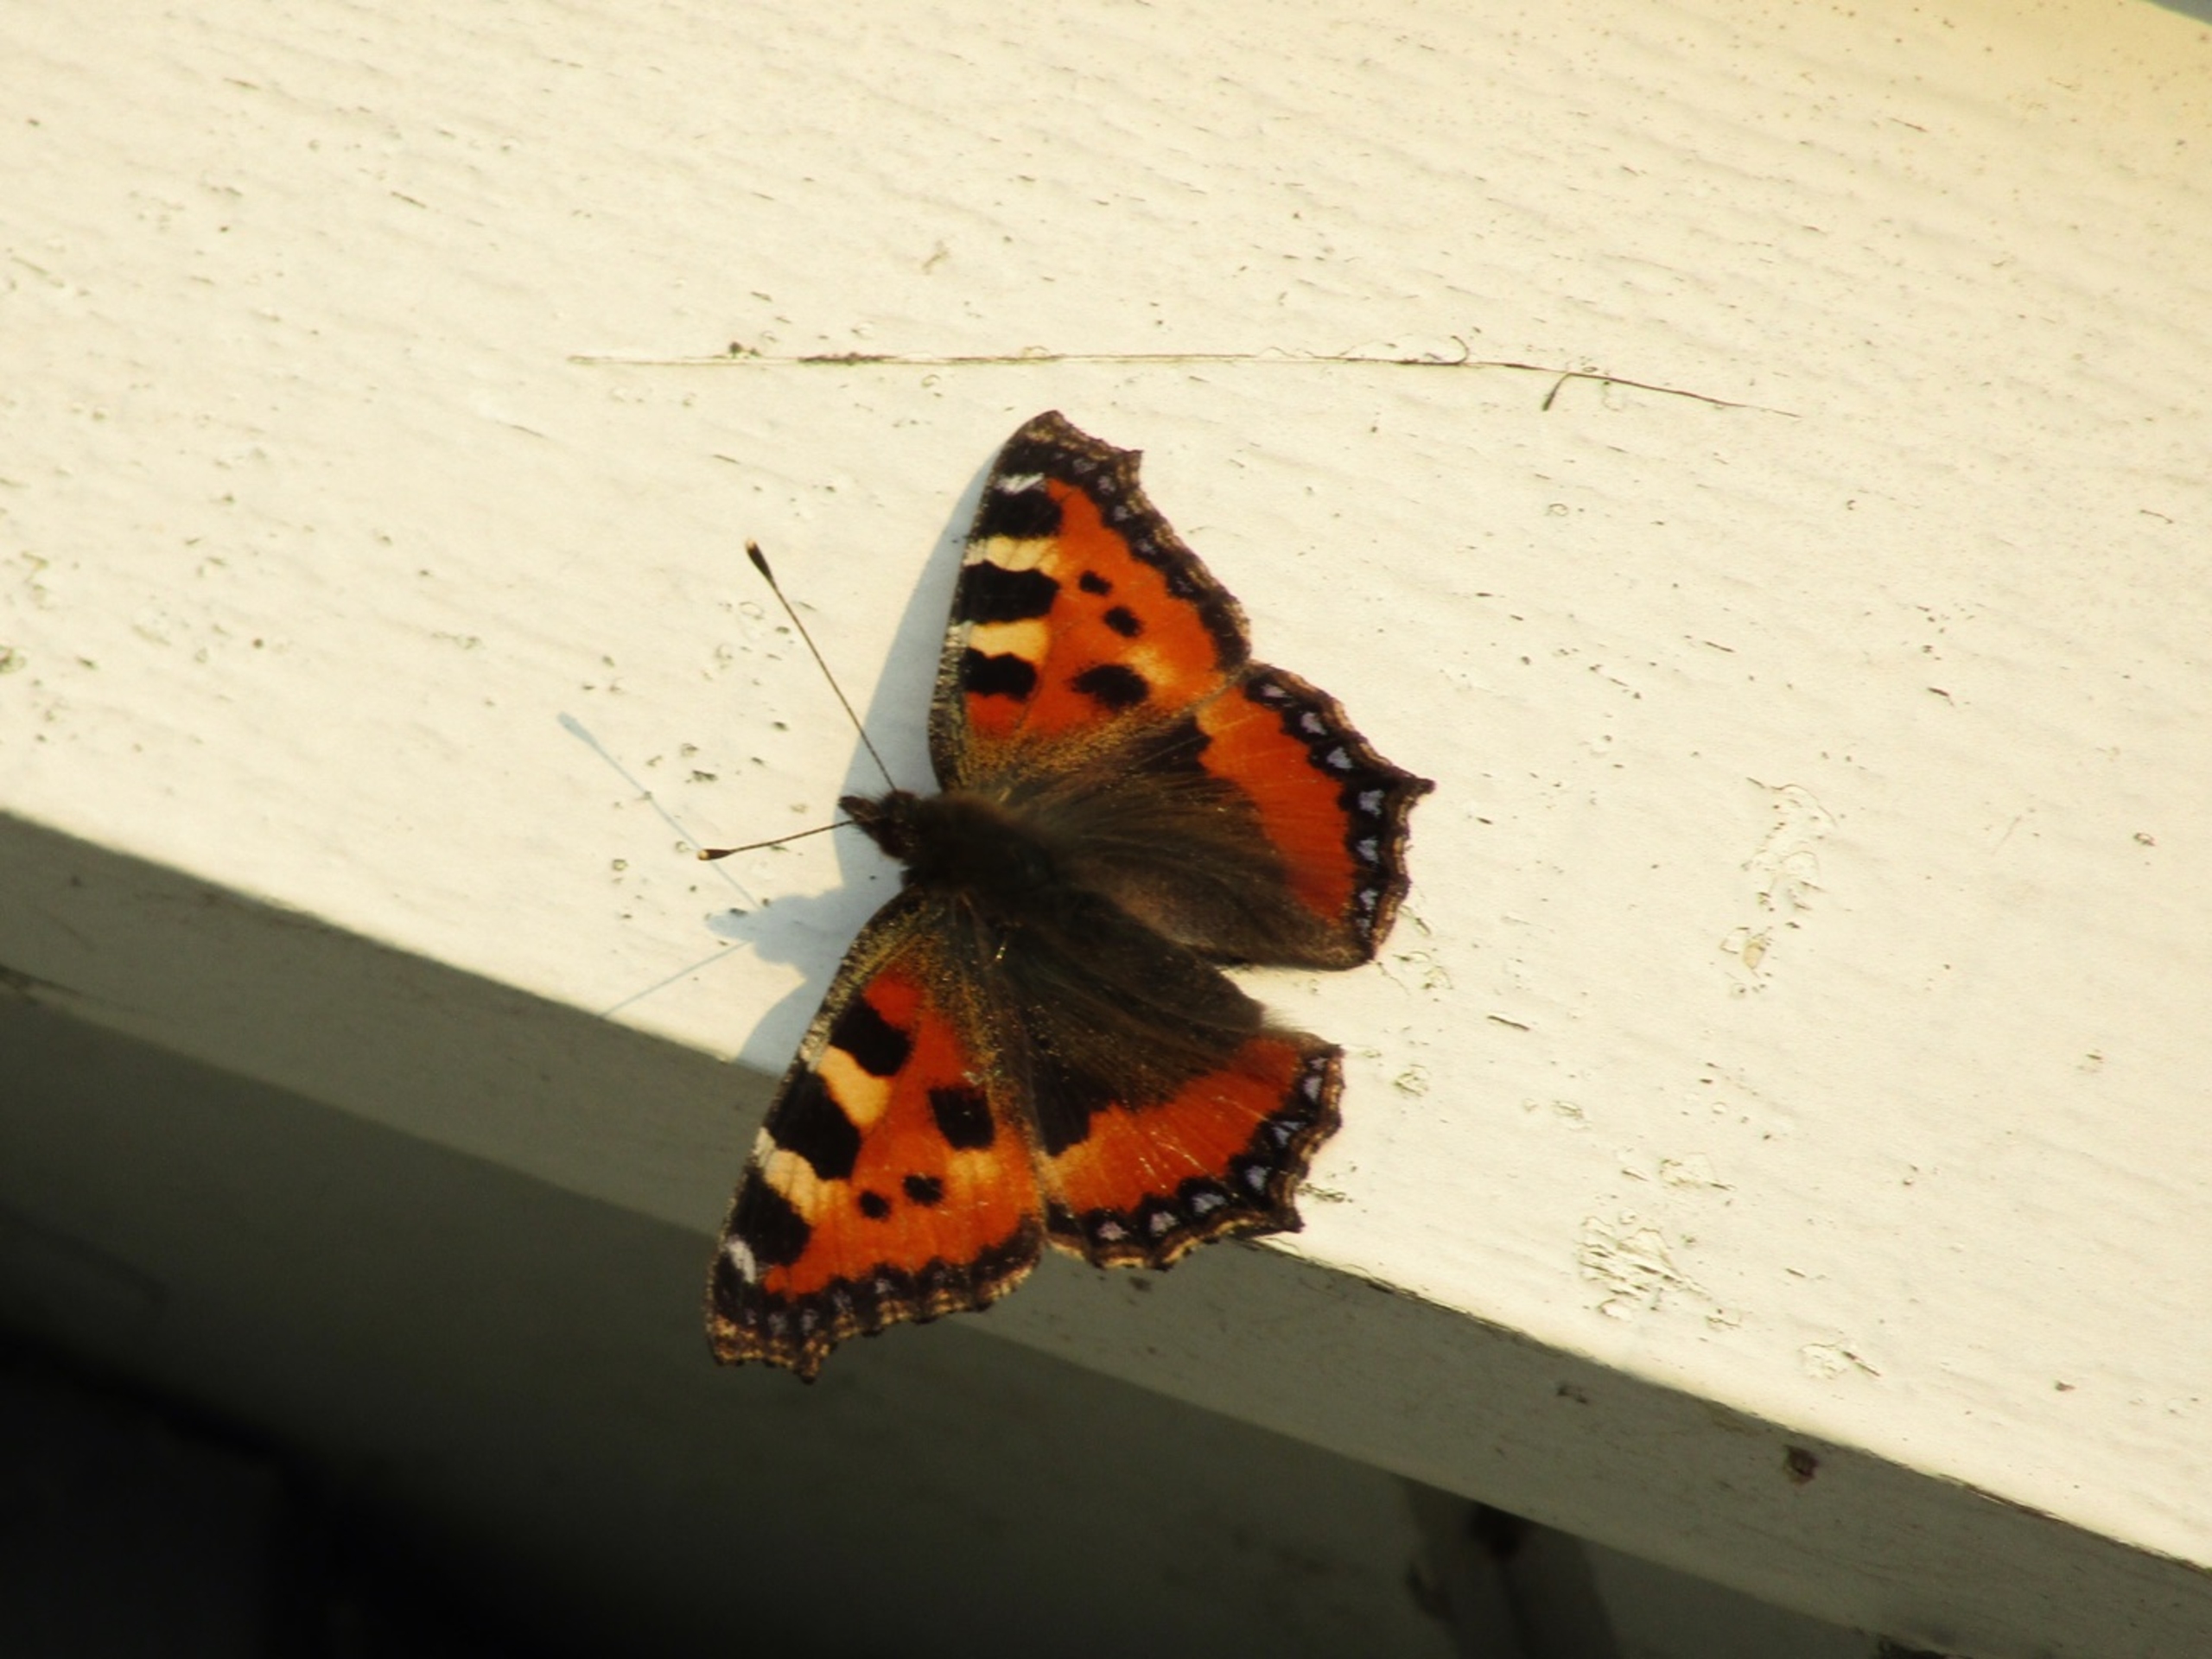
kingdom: Animalia
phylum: Arthropoda
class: Insecta
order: Lepidoptera
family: Nymphalidae
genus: Aglais
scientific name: Aglais urticae
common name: Nældens takvinge
